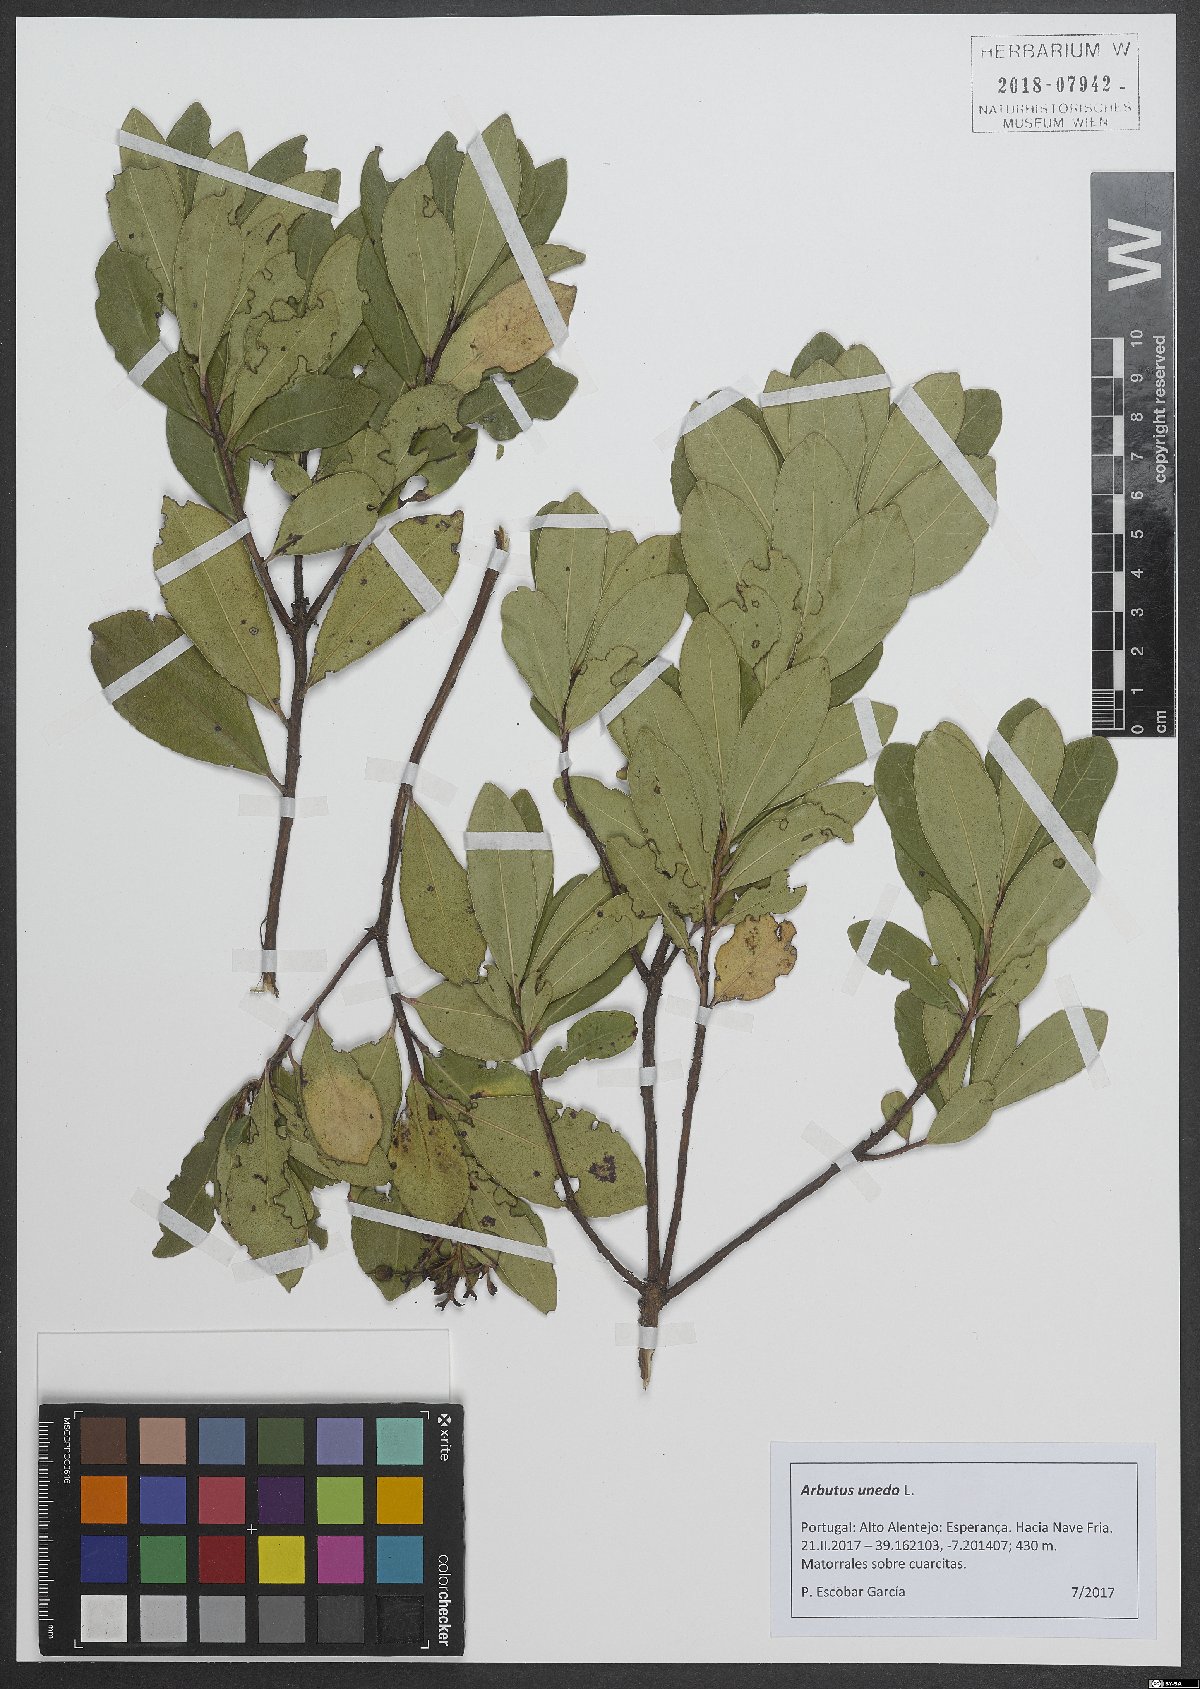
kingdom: Plantae
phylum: Tracheophyta
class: Magnoliopsida
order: Ericales
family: Ericaceae
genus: Arbutus
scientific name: Arbutus unedo
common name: Strawberry-tree
